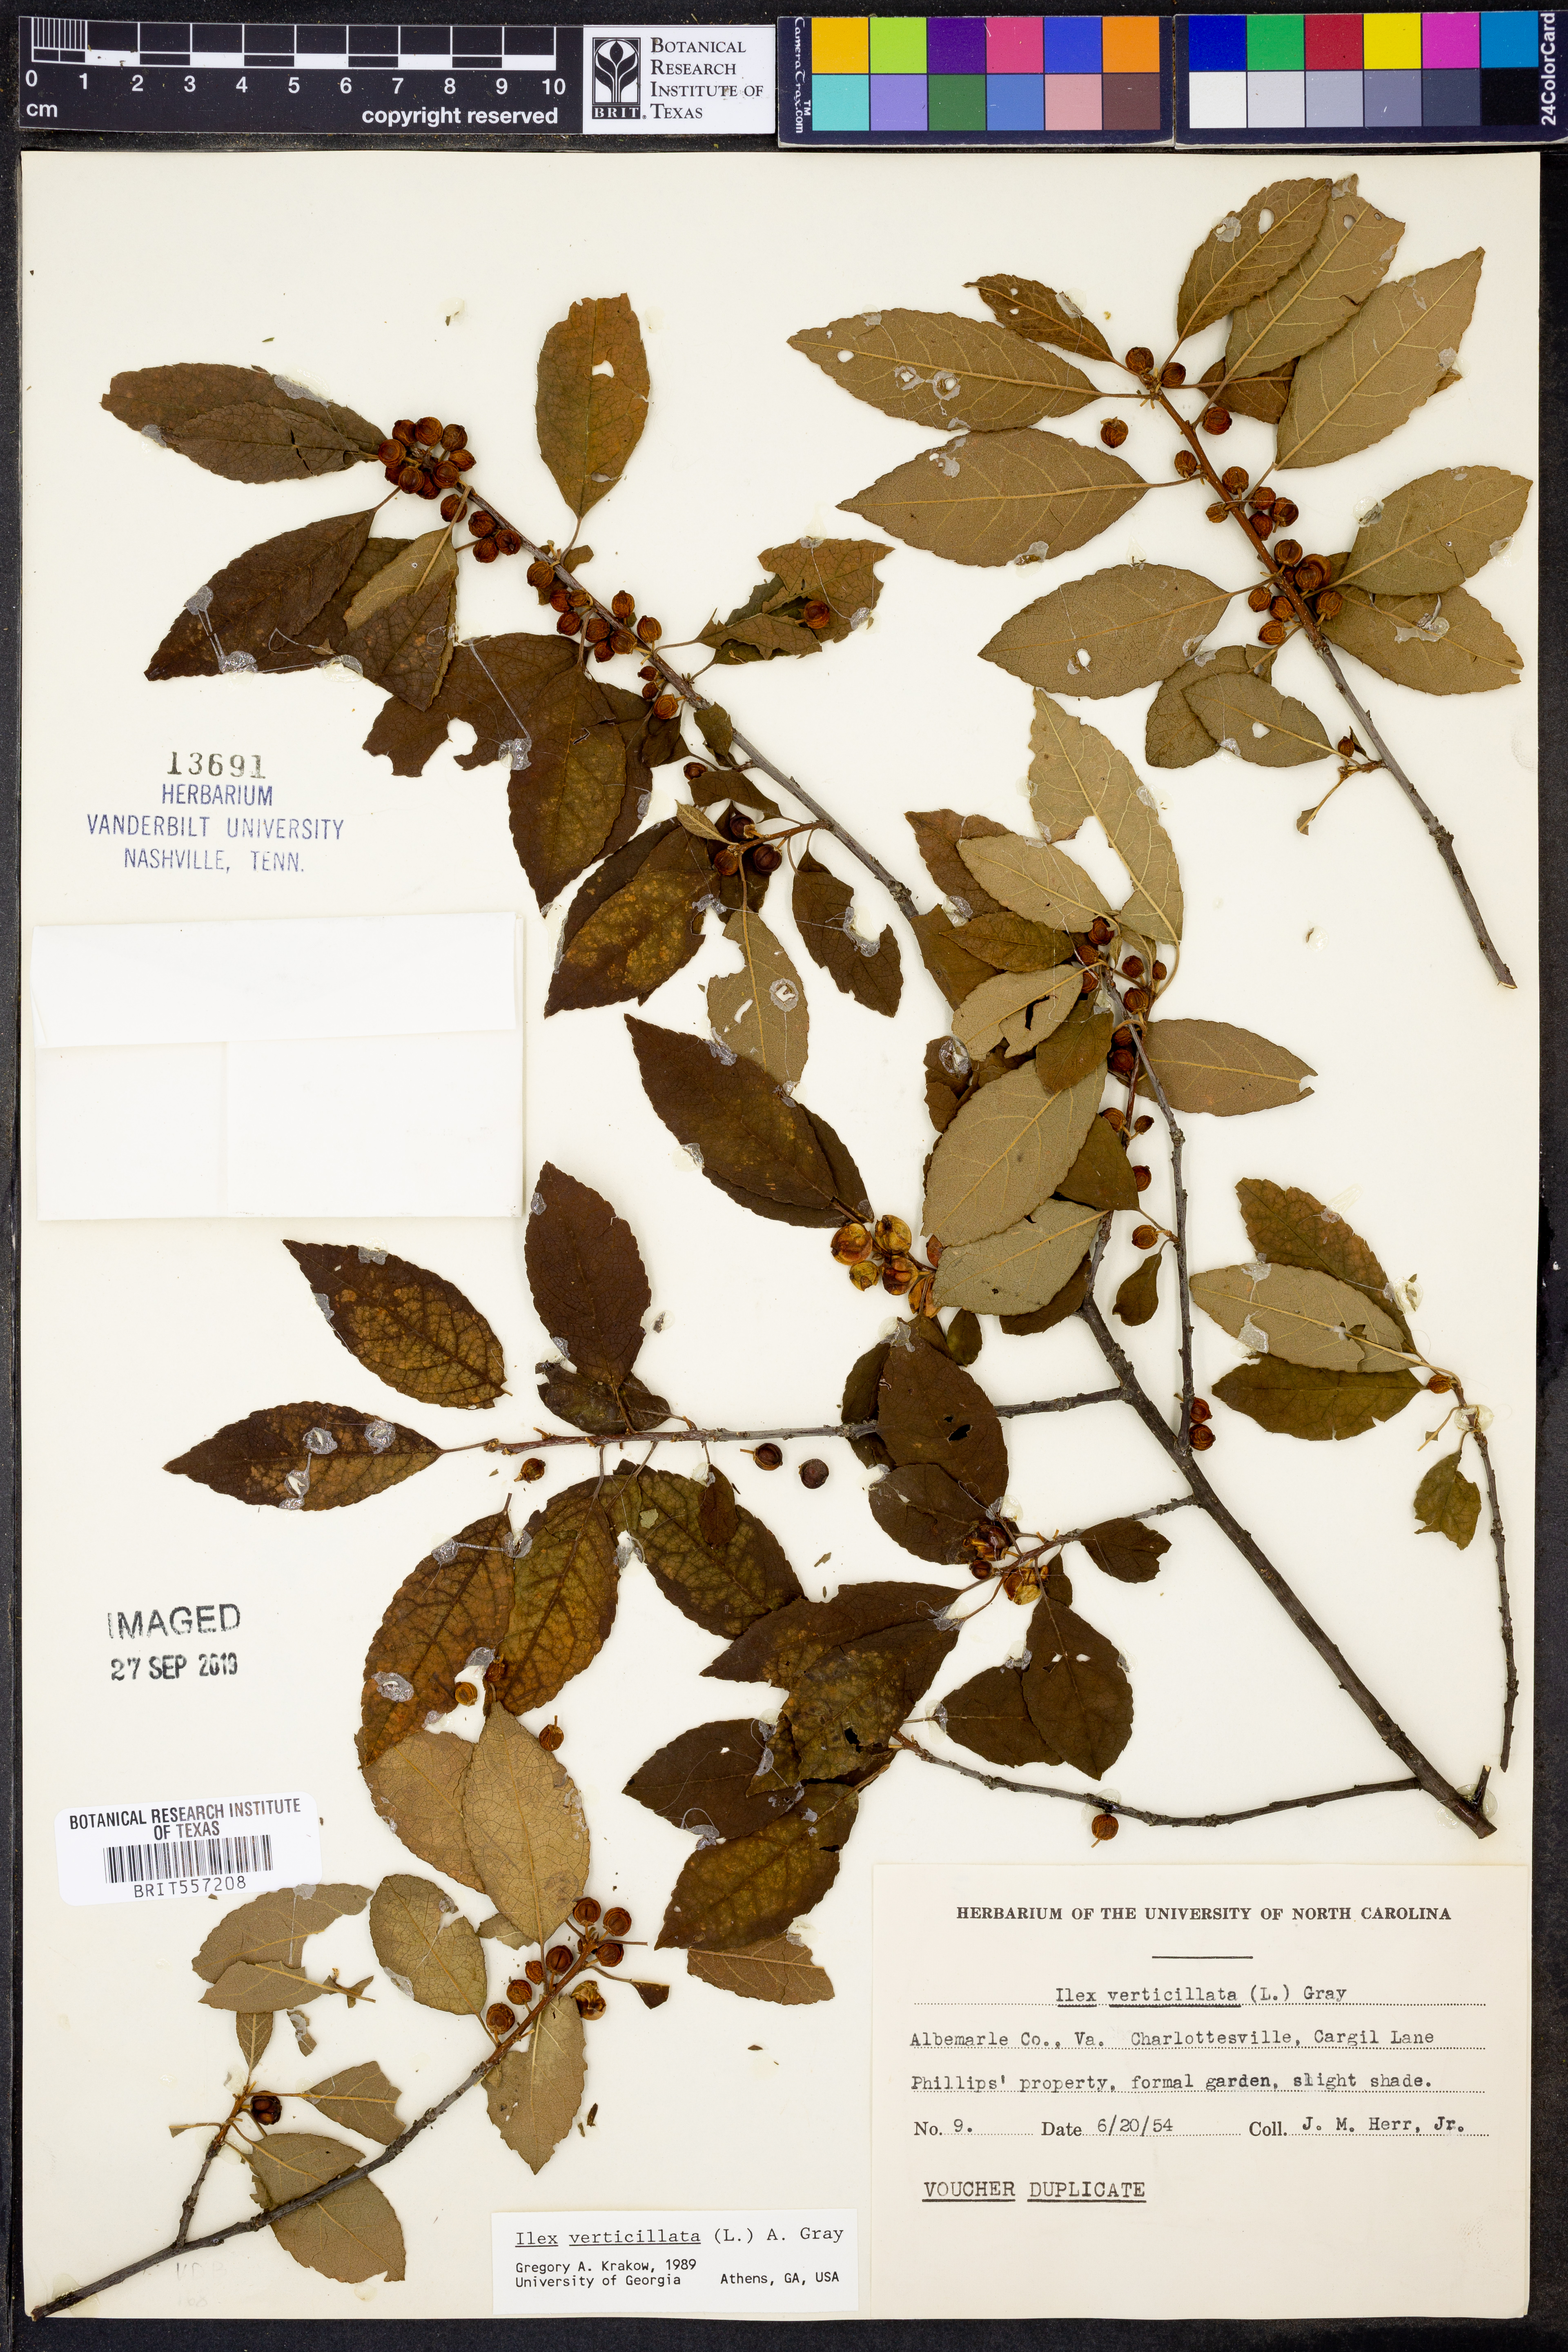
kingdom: Plantae
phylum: Tracheophyta
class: Magnoliopsida
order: Aquifoliales
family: Aquifoliaceae
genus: Ilex
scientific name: Ilex verticillata
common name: Virginia winterberry
